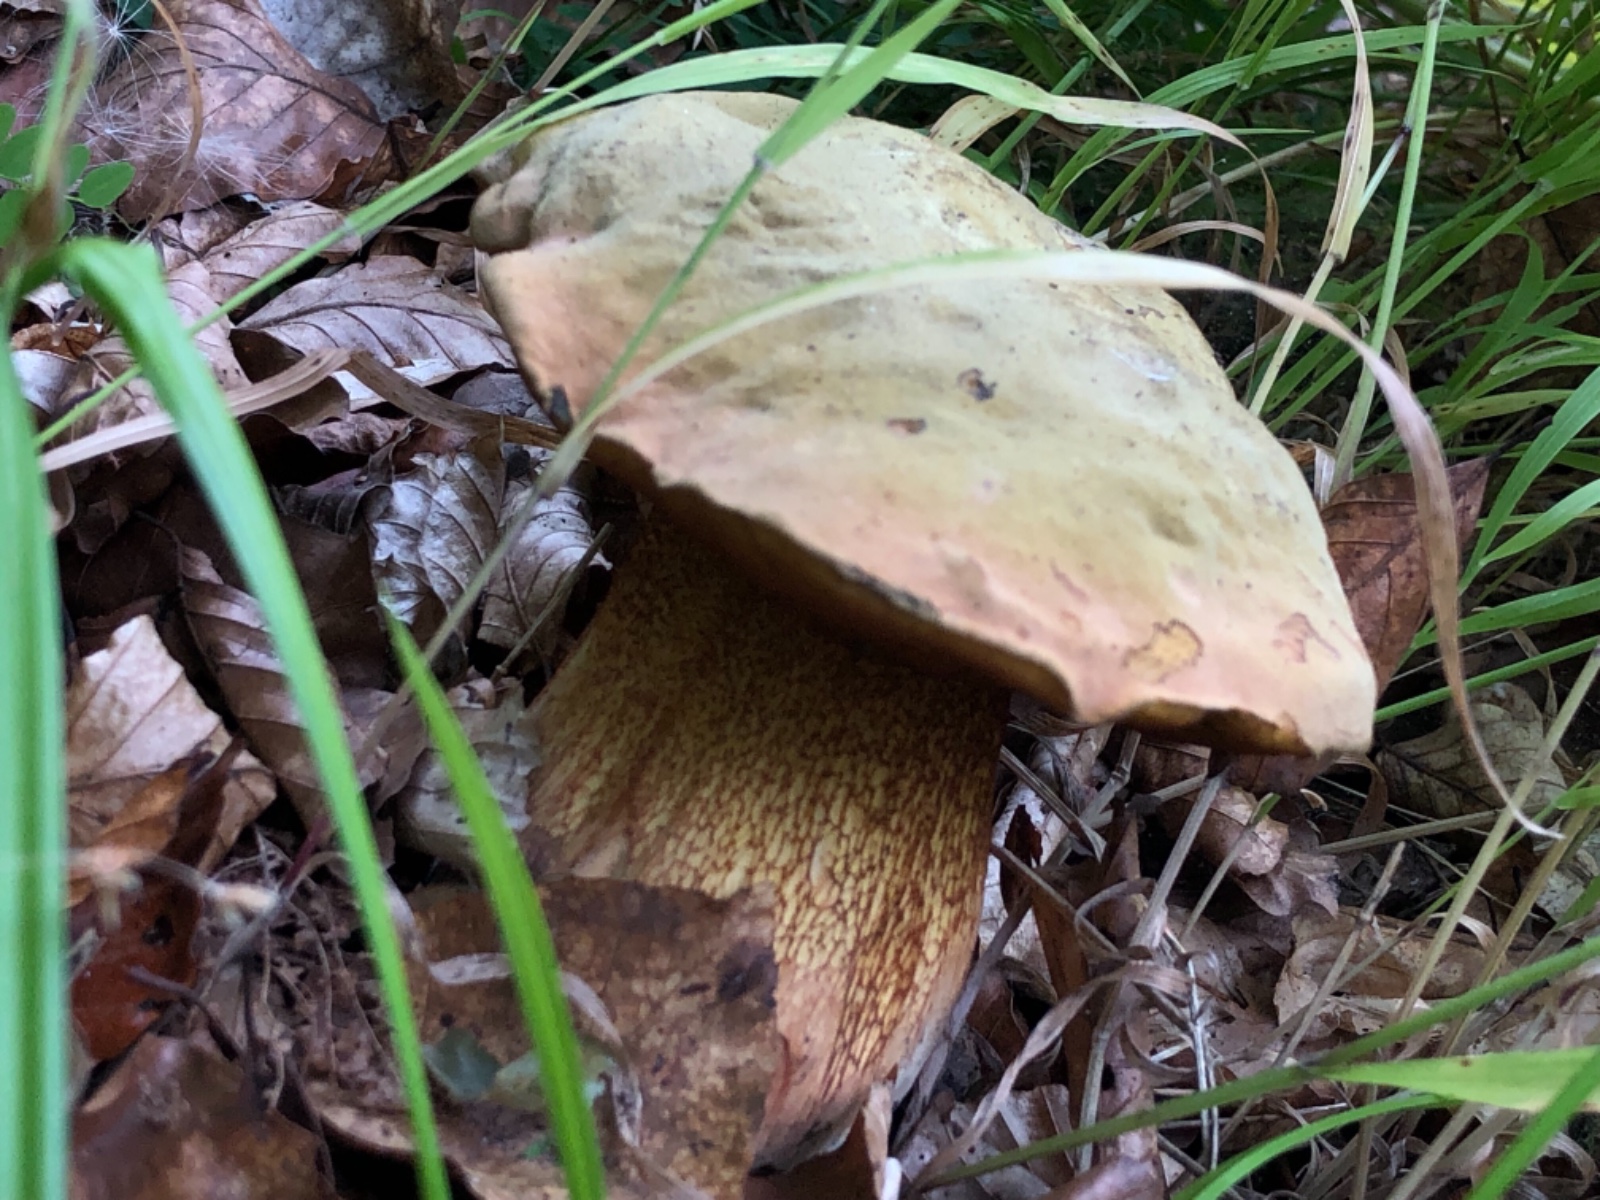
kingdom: Fungi
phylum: Basidiomycota
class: Agaricomycetes
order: Boletales
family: Boletaceae
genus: Suillellus
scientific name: Suillellus luridus
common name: netstokket indigorørhat
